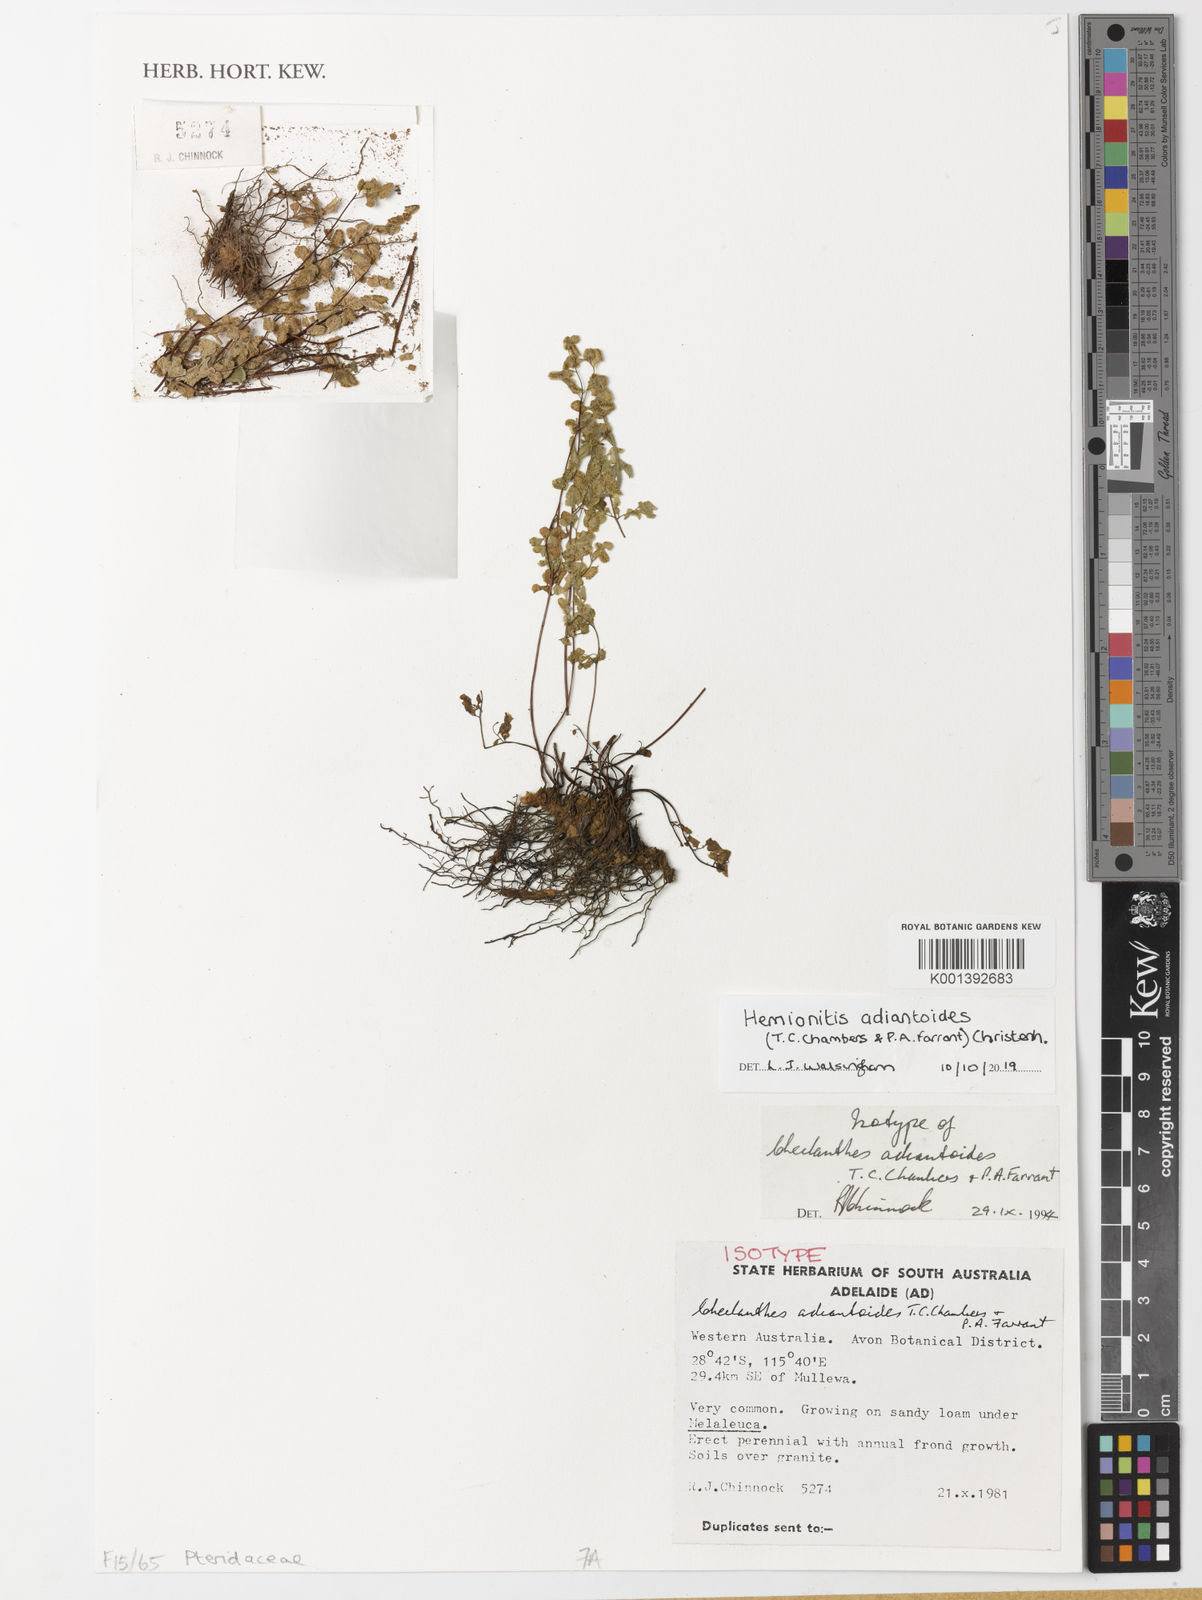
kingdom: Plantae
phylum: Tracheophyta
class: Polypodiopsida
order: Polypodiales
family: Pteridaceae
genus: Cheilanthes
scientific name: Cheilanthes adiantoides
